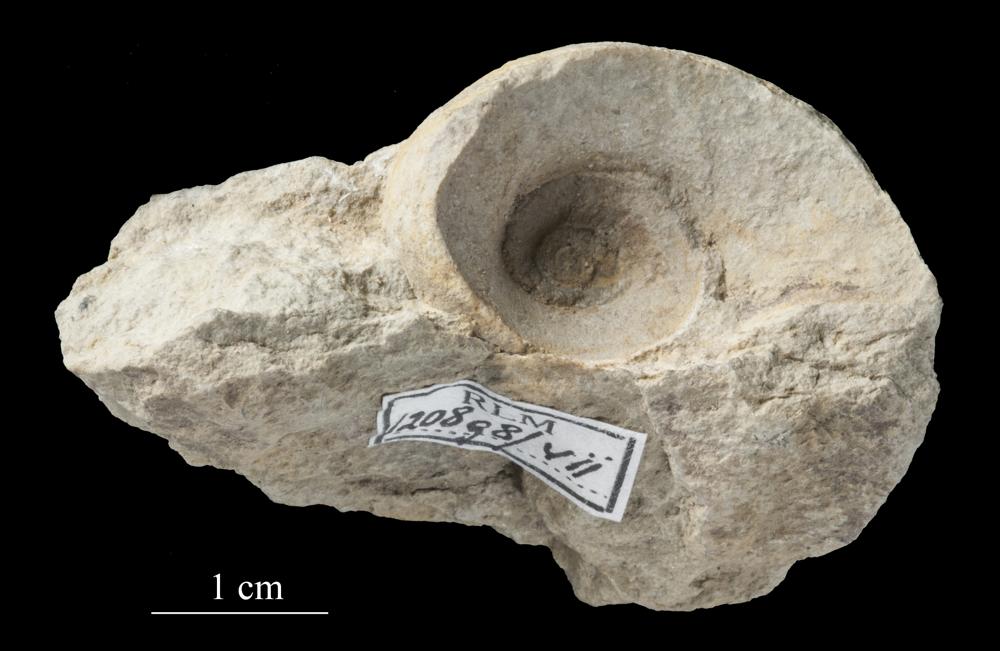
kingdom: Animalia
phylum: Mollusca
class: Gastropoda
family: Raphistomatidae
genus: Raphistoma
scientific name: Raphistoma
